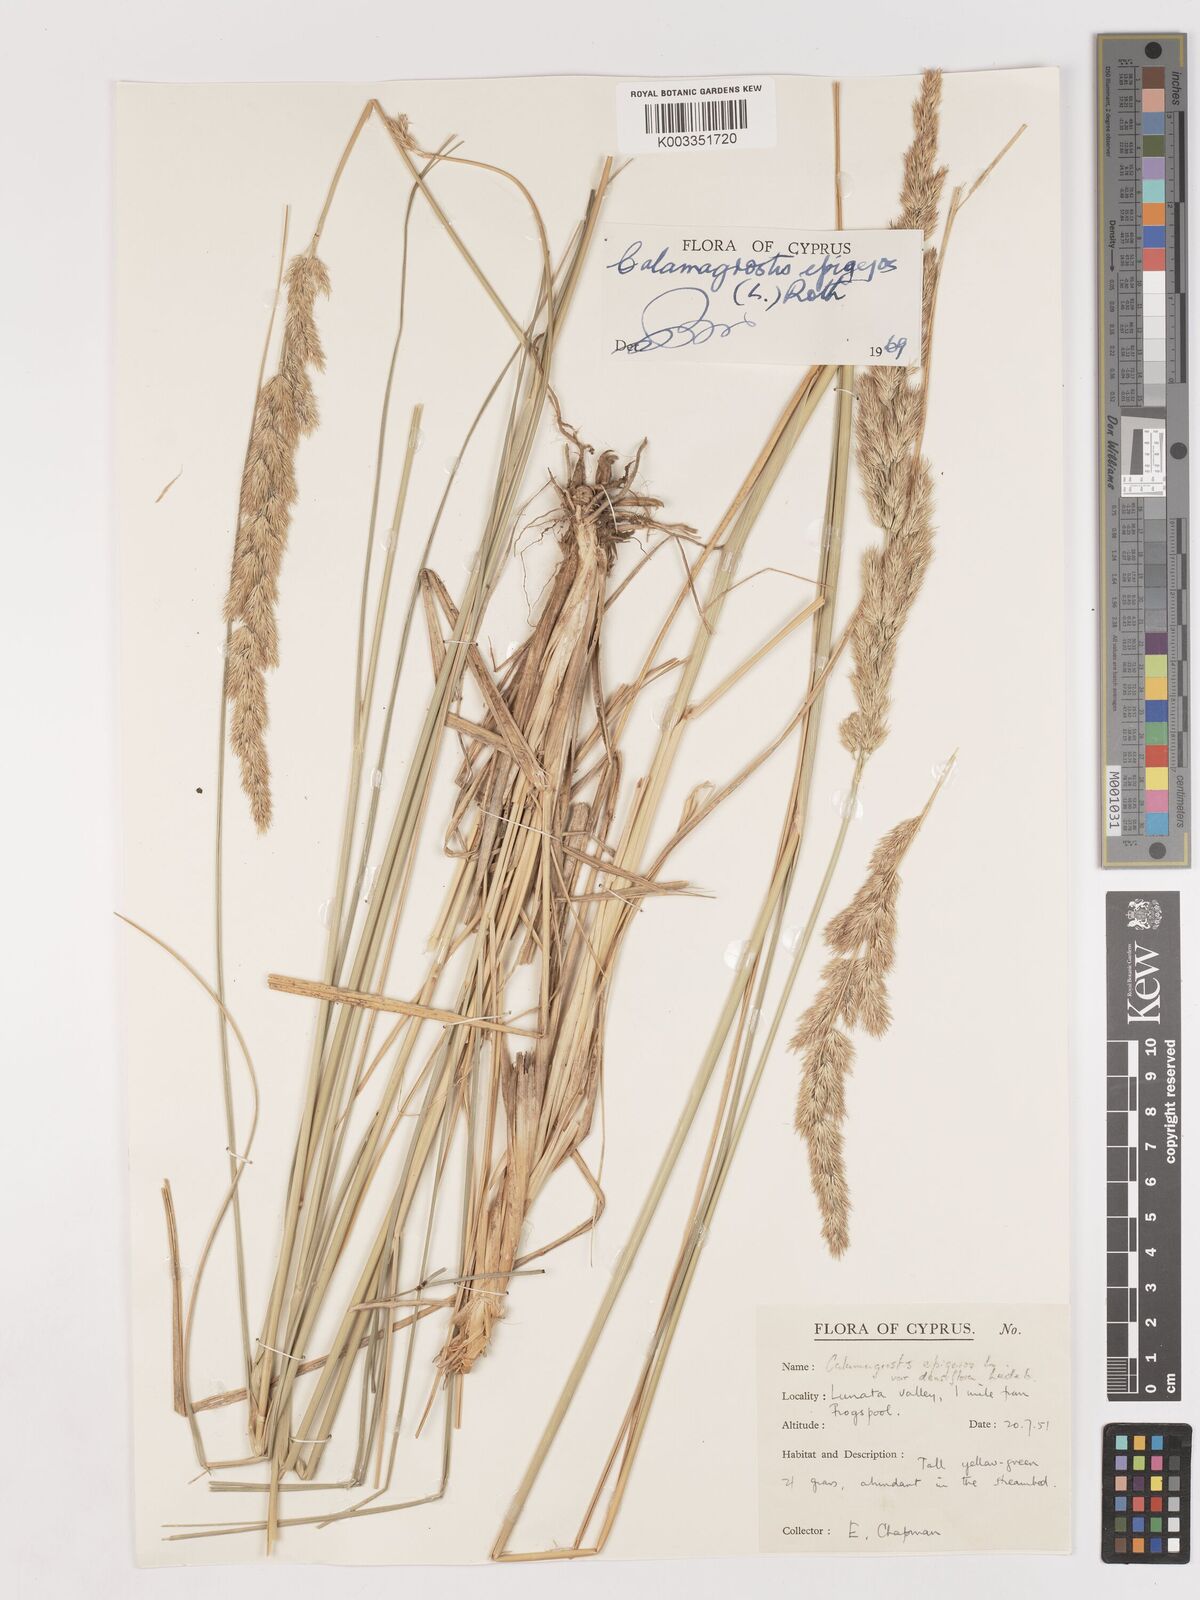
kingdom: Plantae
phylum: Tracheophyta
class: Liliopsida
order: Poales
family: Poaceae
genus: Calamagrostis
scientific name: Calamagrostis epigejos
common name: Wood small-reed
